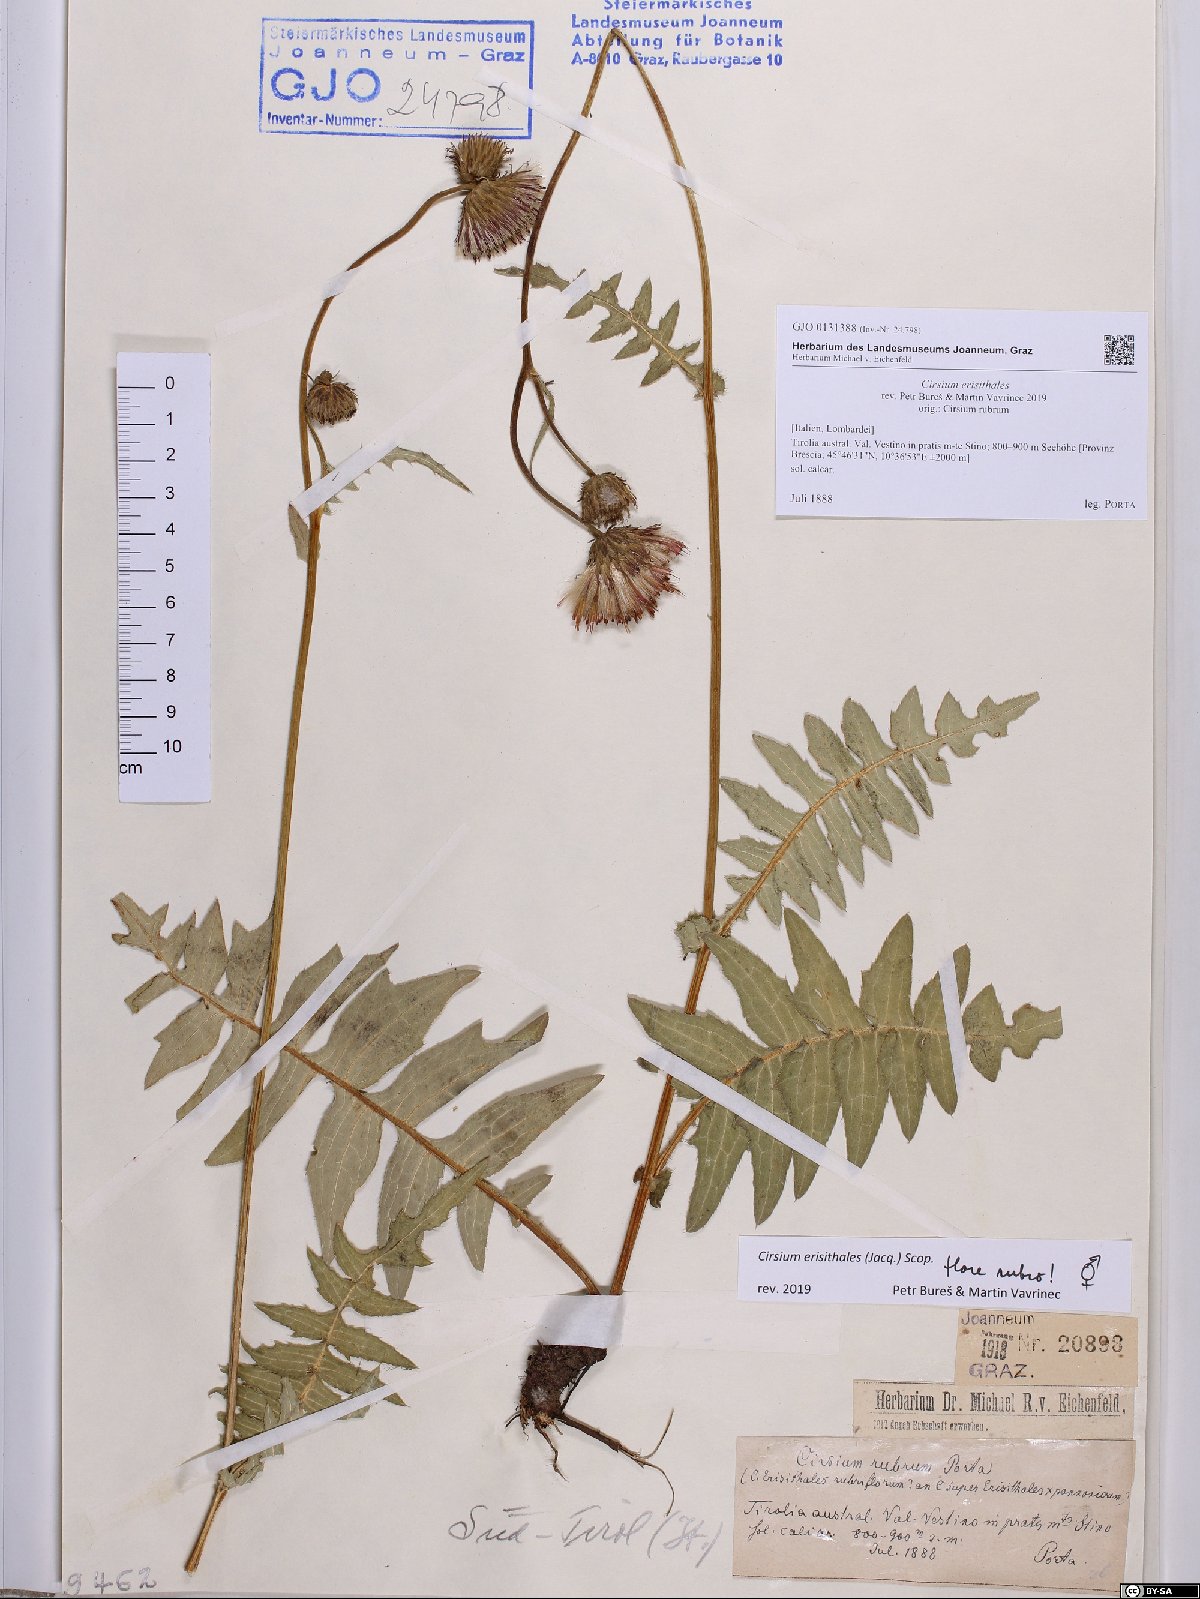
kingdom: Plantae
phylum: Tracheophyta
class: Magnoliopsida
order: Asterales
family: Asteraceae
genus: Cirsium
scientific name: Cirsium erisithales
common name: Yellow thistle
